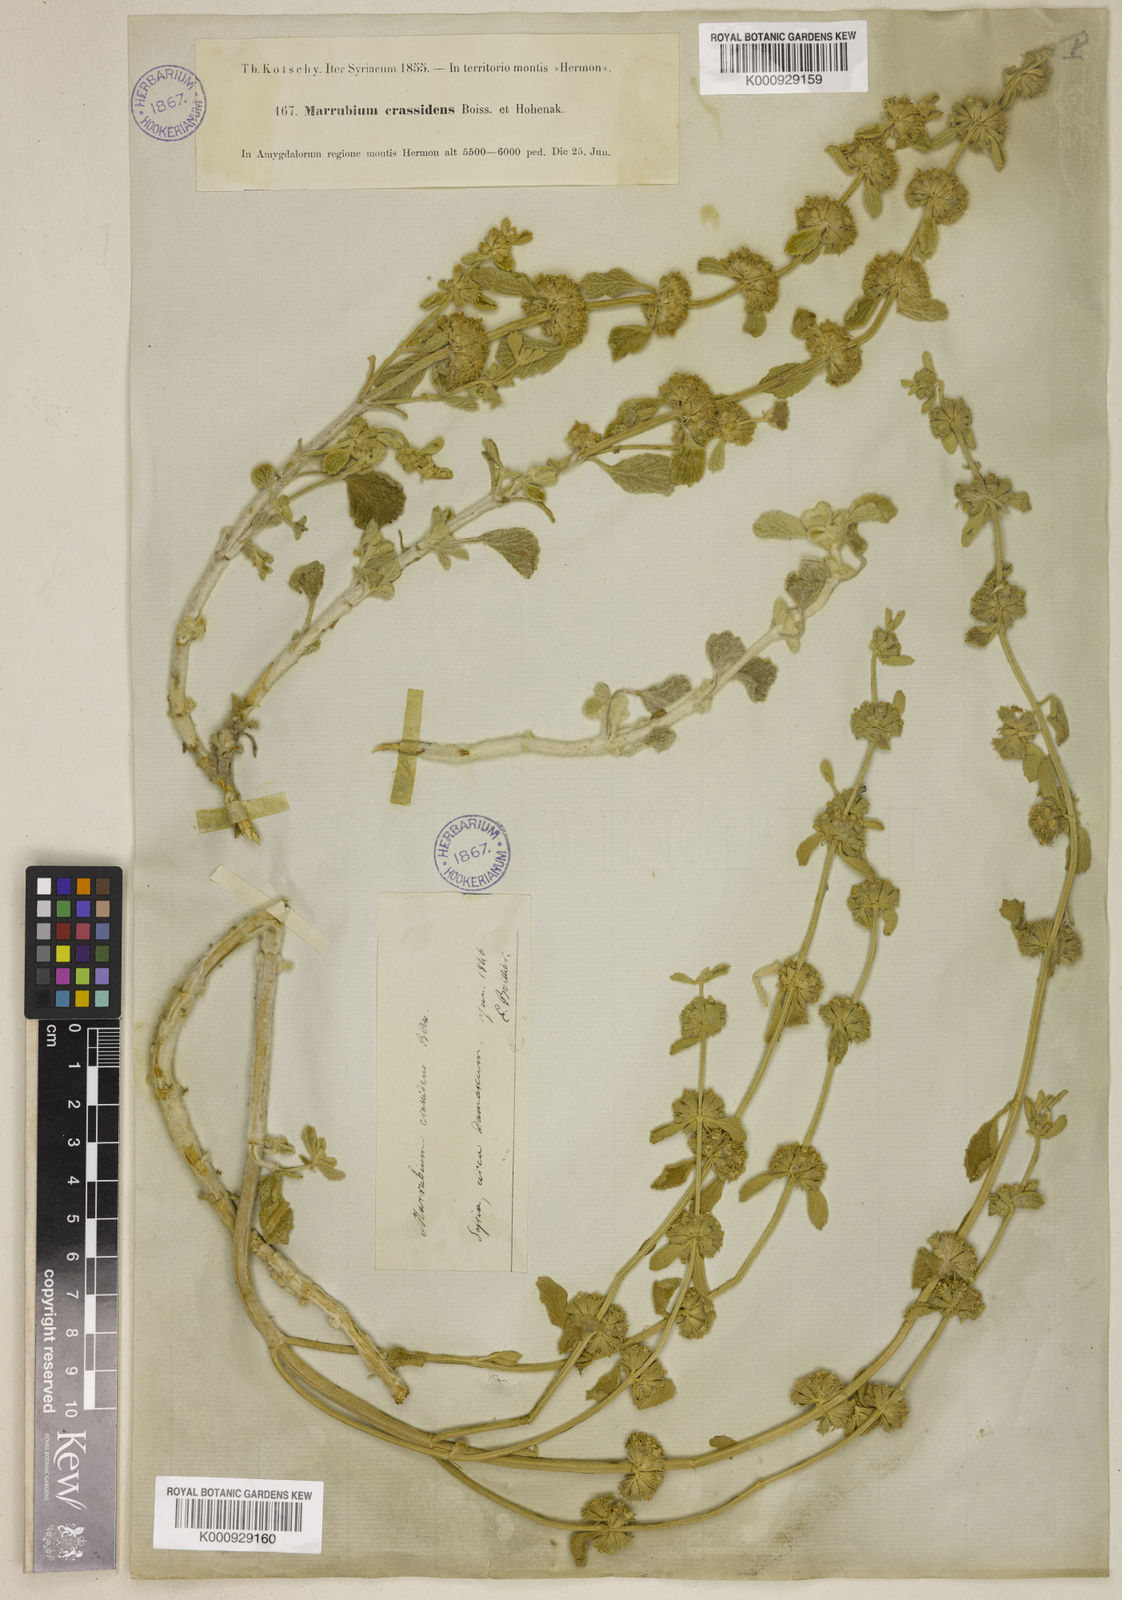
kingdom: Plantae
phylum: Tracheophyta
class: Magnoliopsida
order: Lamiales
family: Lamiaceae
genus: Marrubium
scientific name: Marrubium cuneatum
